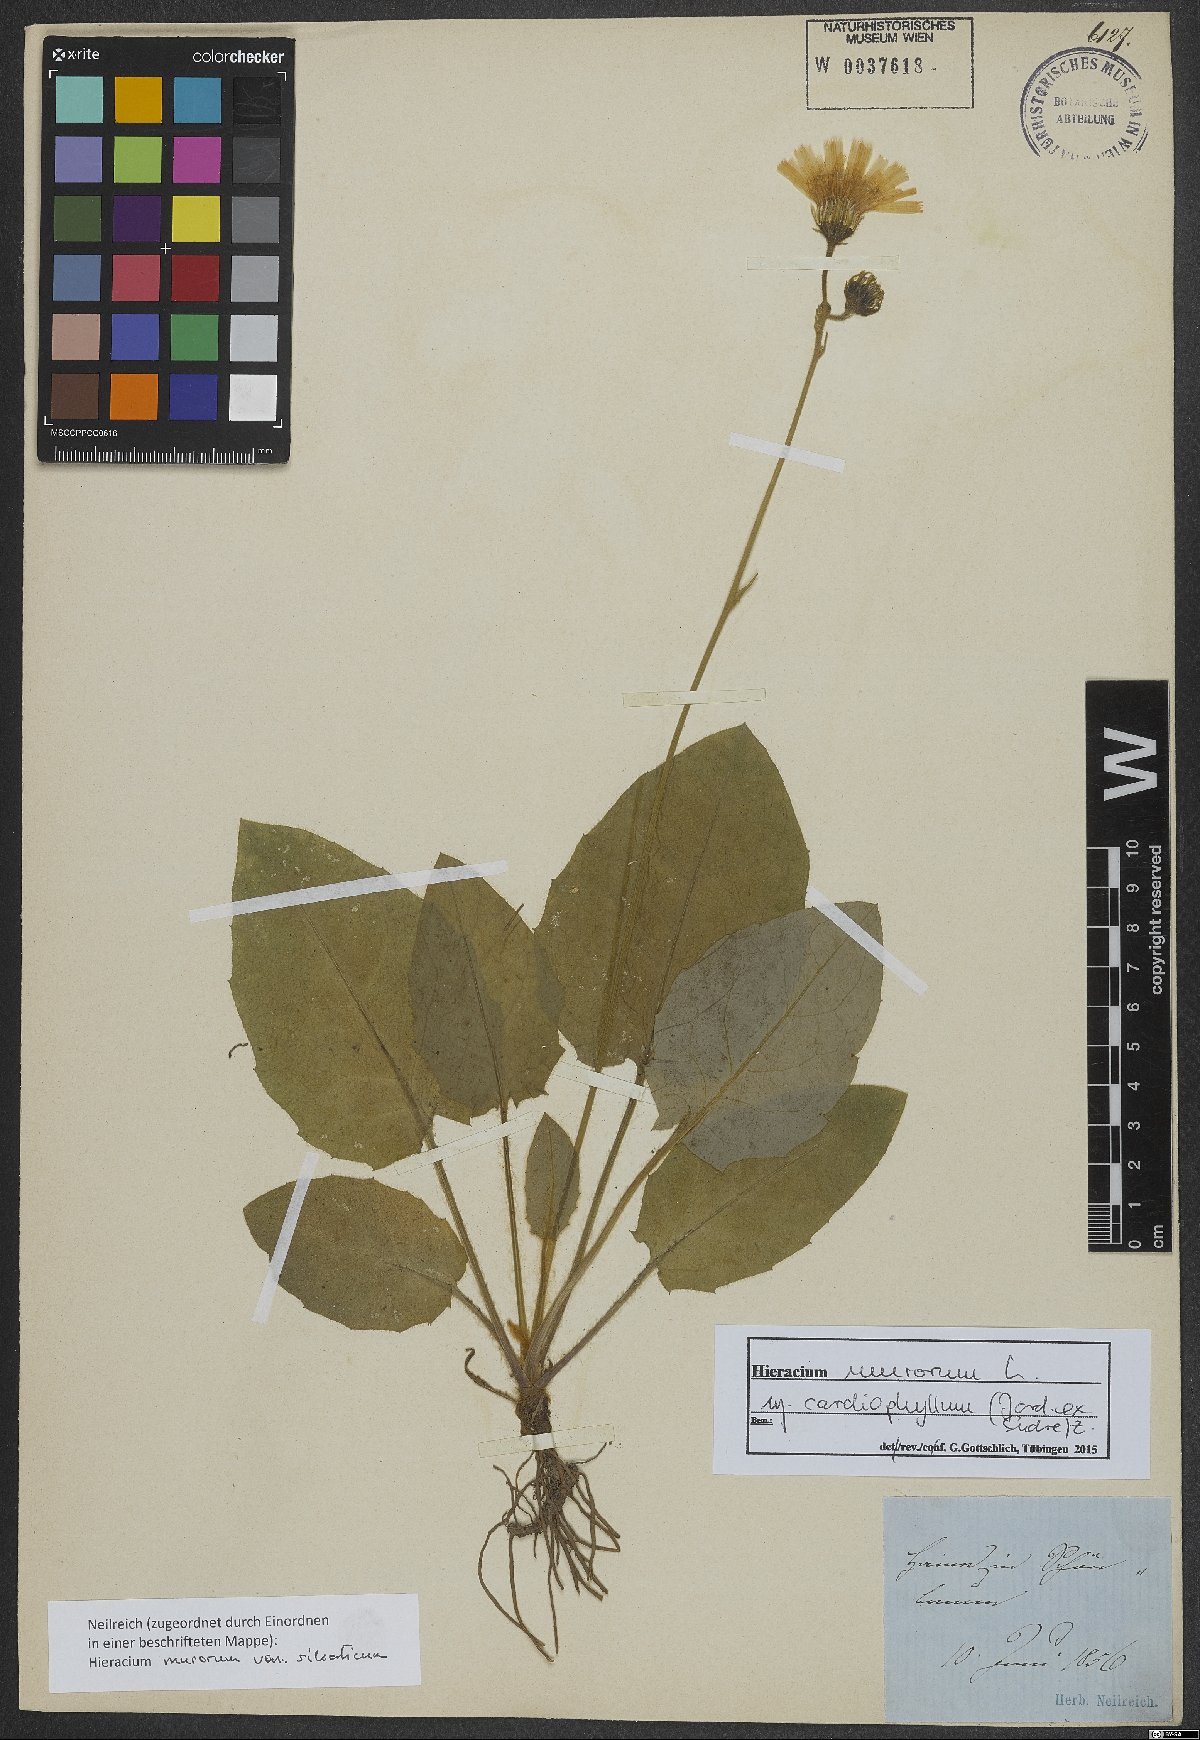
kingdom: Plantae
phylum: Tracheophyta
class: Magnoliopsida
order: Asterales
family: Asteraceae
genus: Hieracium
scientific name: Hieracium murorum
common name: Wall hawkweed
